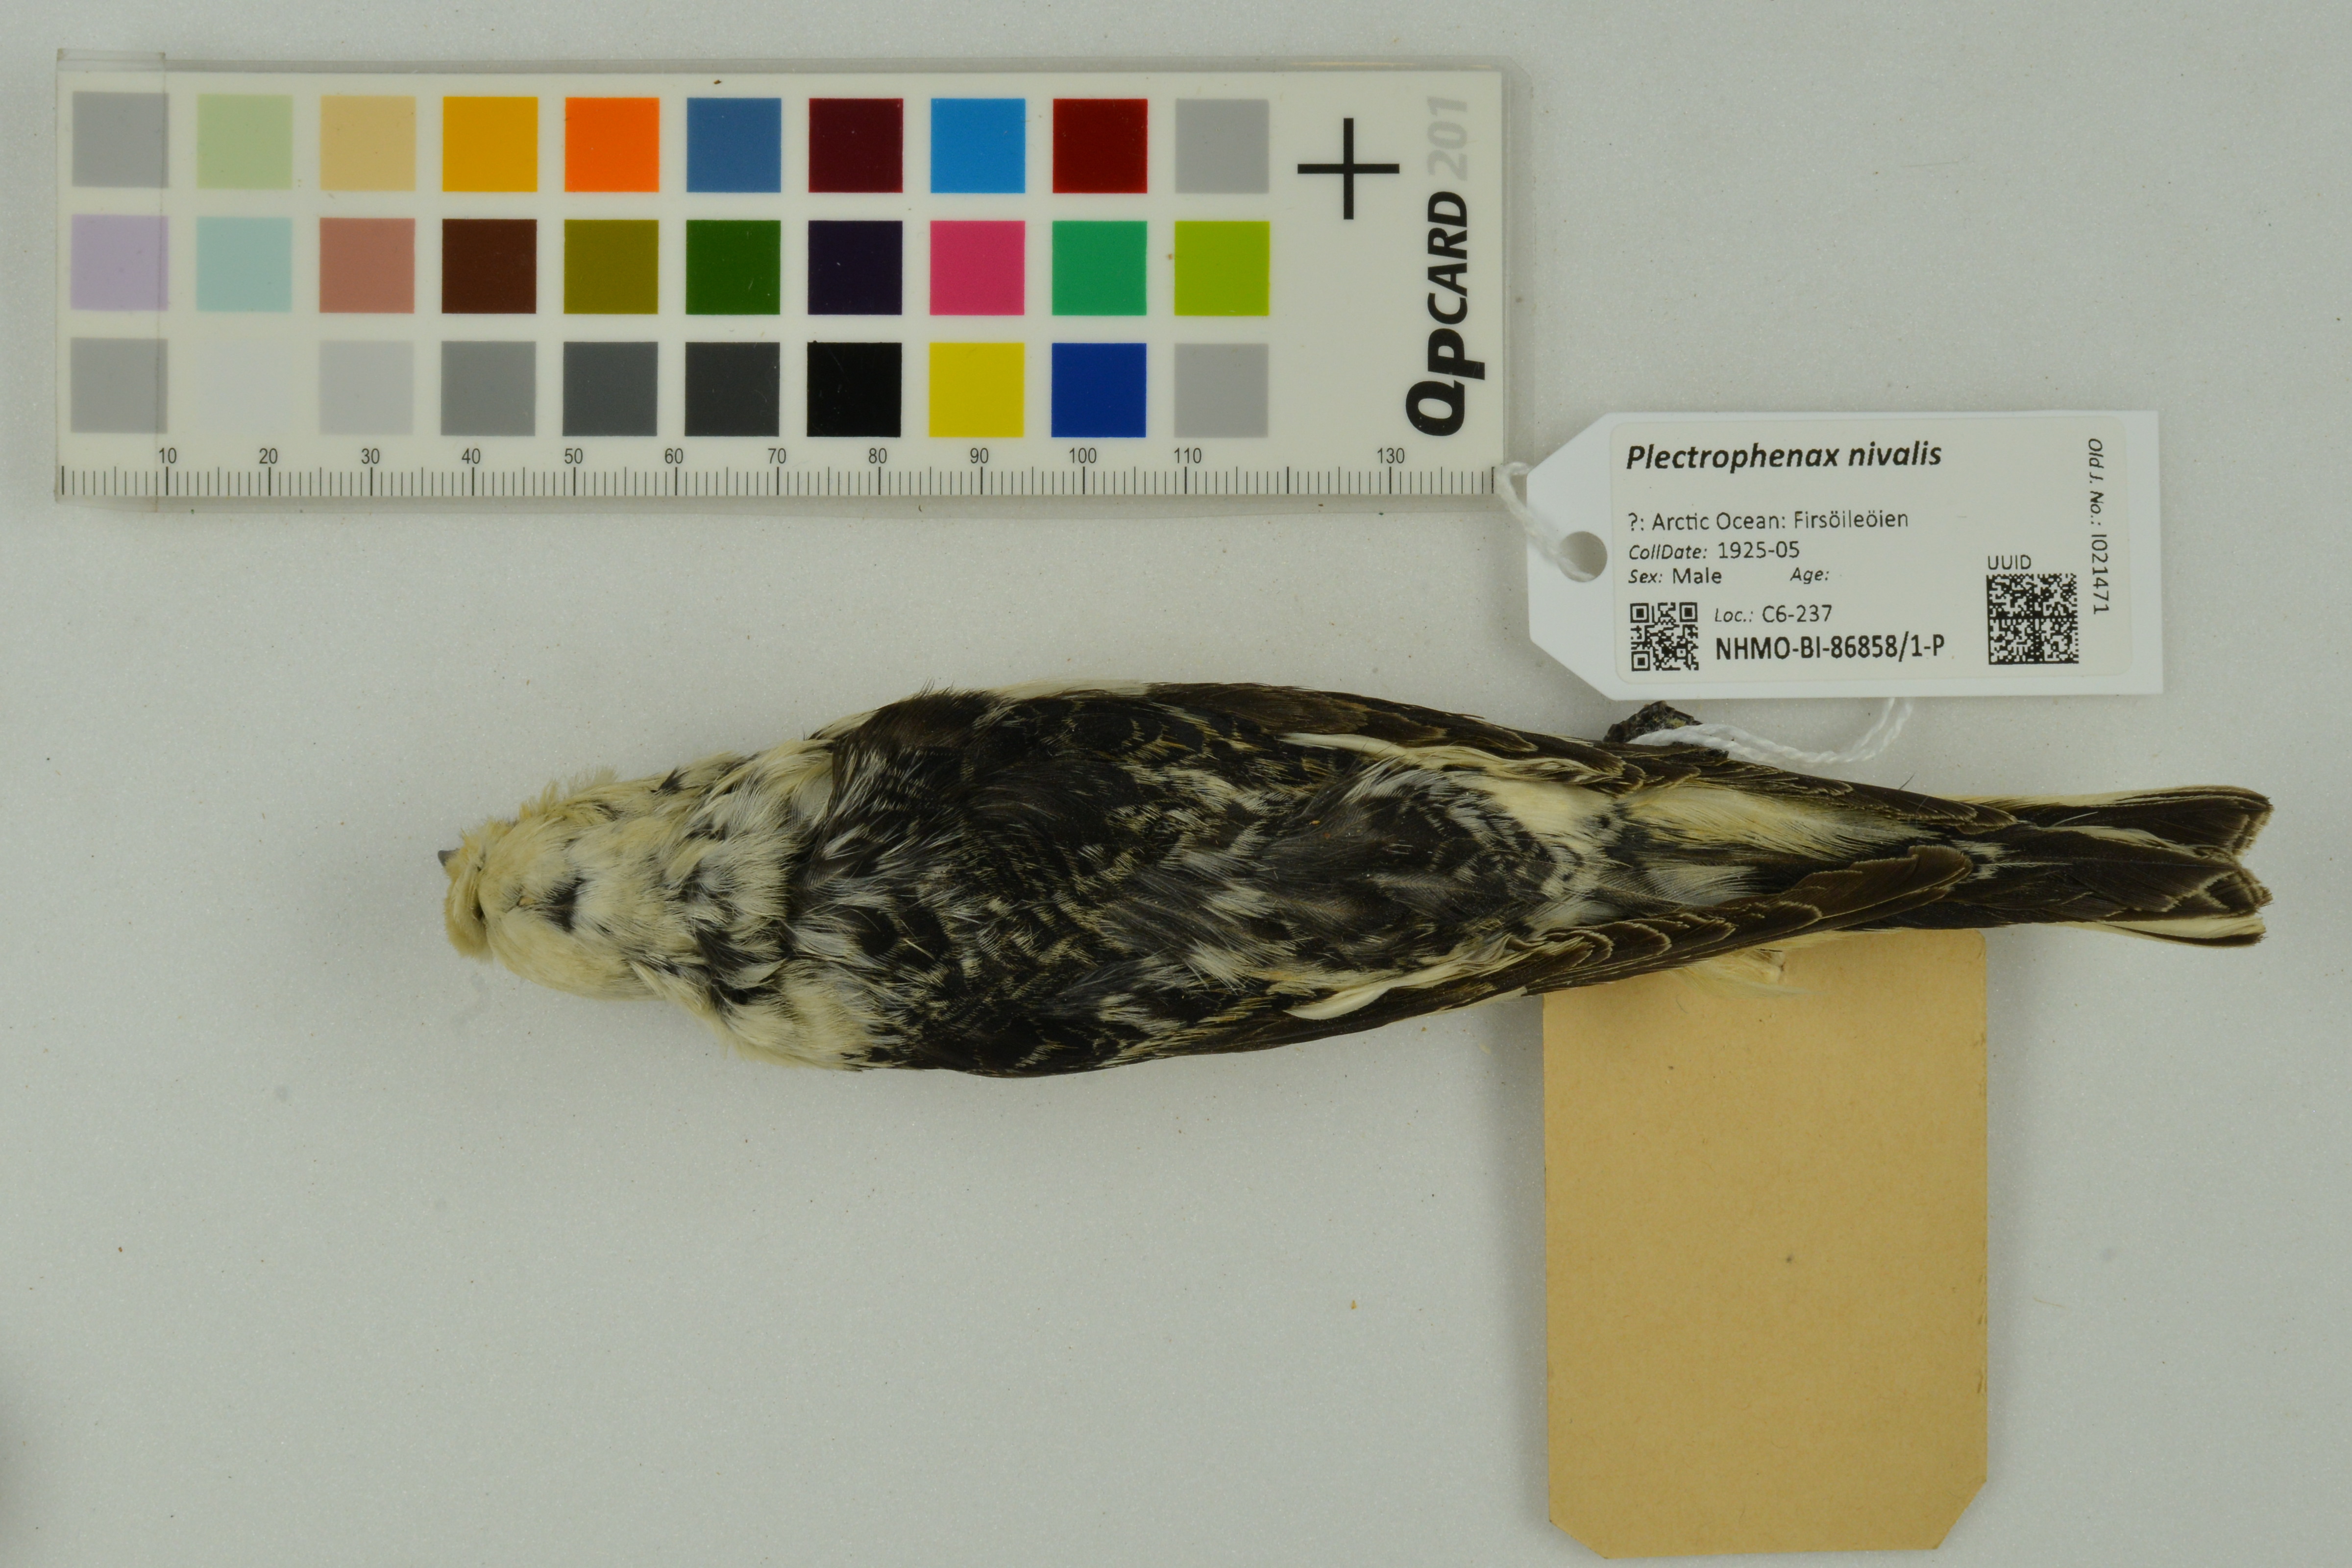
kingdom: Animalia
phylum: Chordata
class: Aves
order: Passeriformes
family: Calcariidae
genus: Plectrophenax
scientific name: Plectrophenax nivalis
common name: Snow bunting
